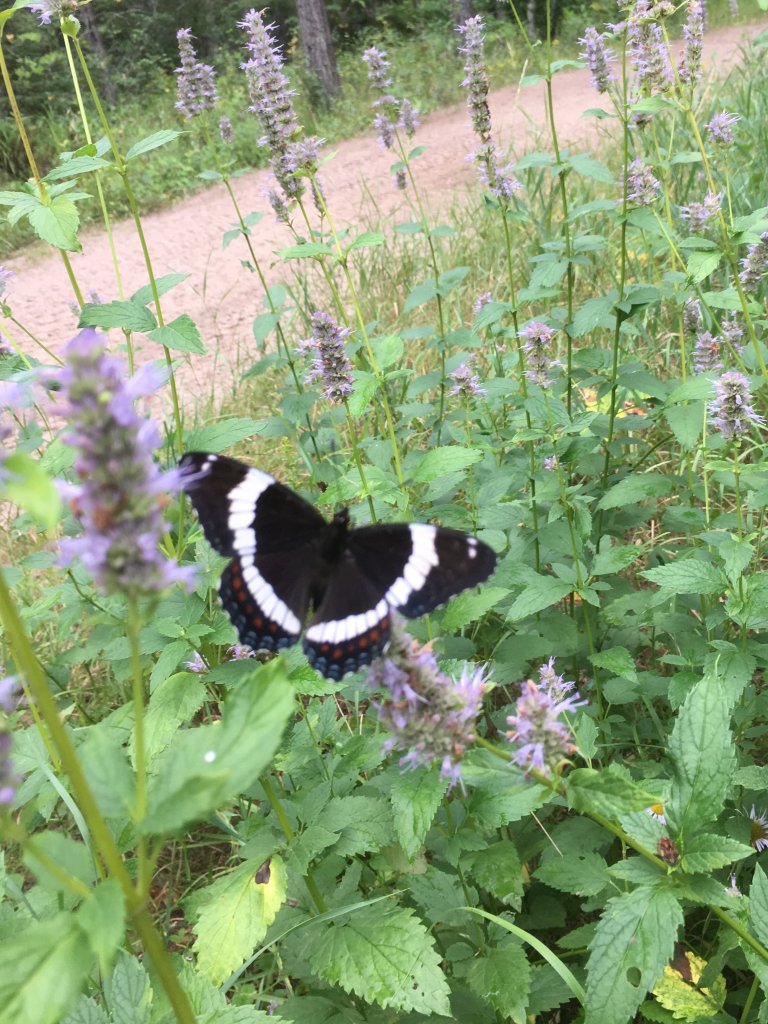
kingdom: Animalia
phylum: Arthropoda
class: Insecta
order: Lepidoptera
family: Nymphalidae
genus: Limenitis
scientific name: Limenitis arthemis
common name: Red-spotted Admiral
